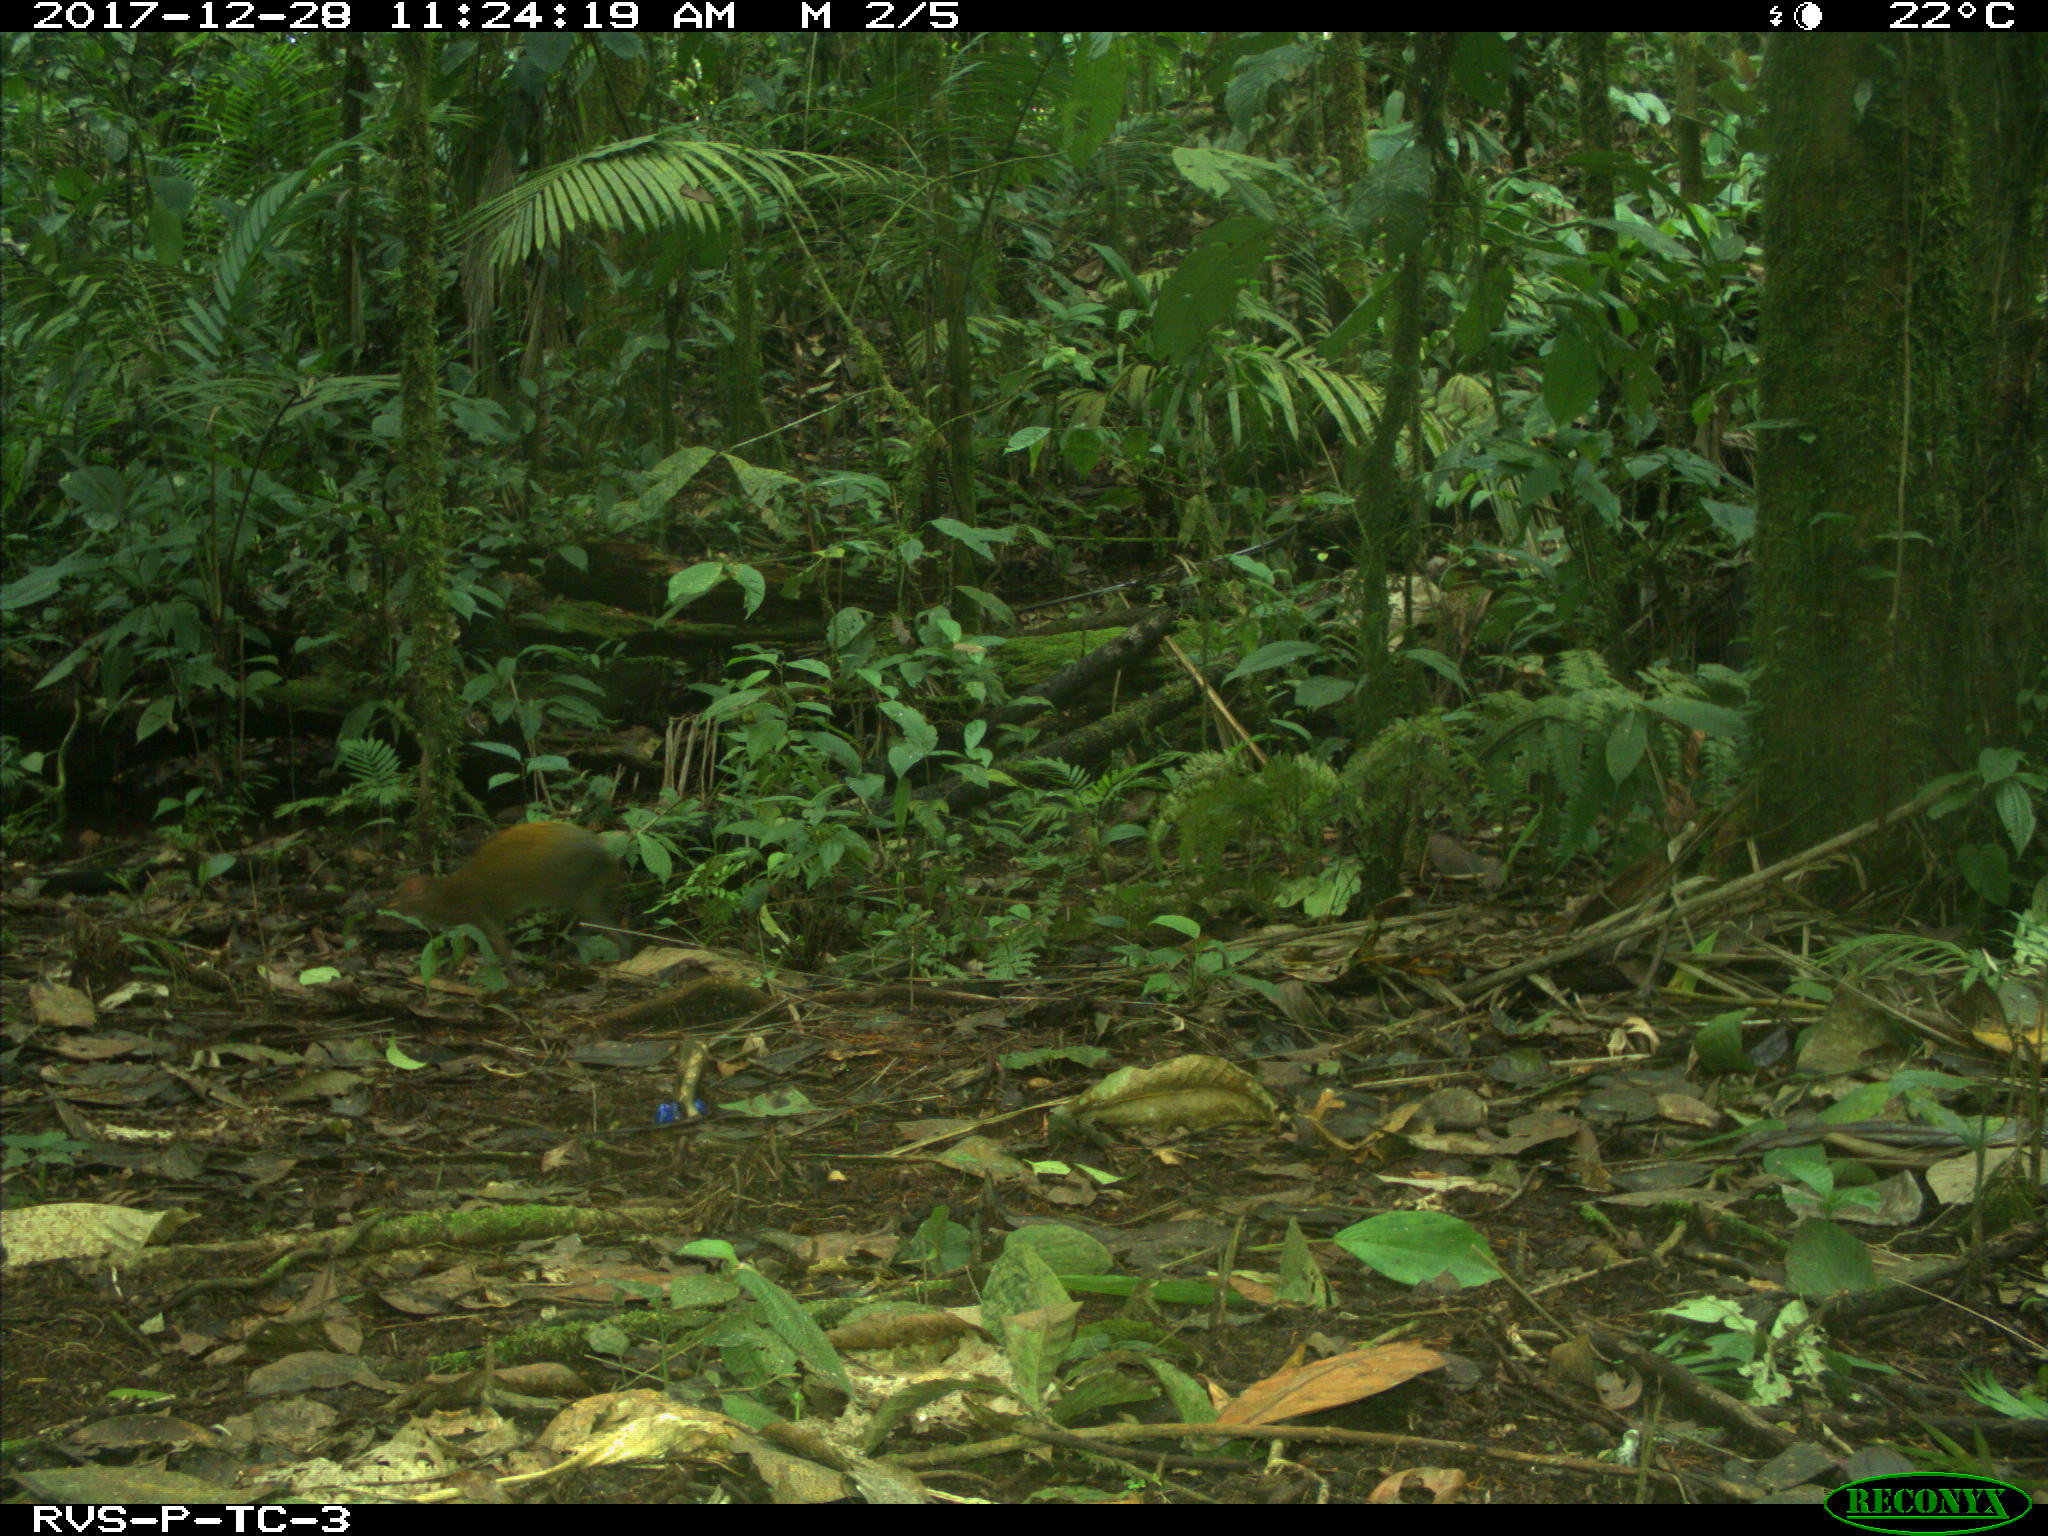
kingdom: Animalia
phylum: Chordata
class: Mammalia
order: Rodentia
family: Dasyproctidae
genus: Dasyprocta
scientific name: Dasyprocta punctata
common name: Central american agouti
